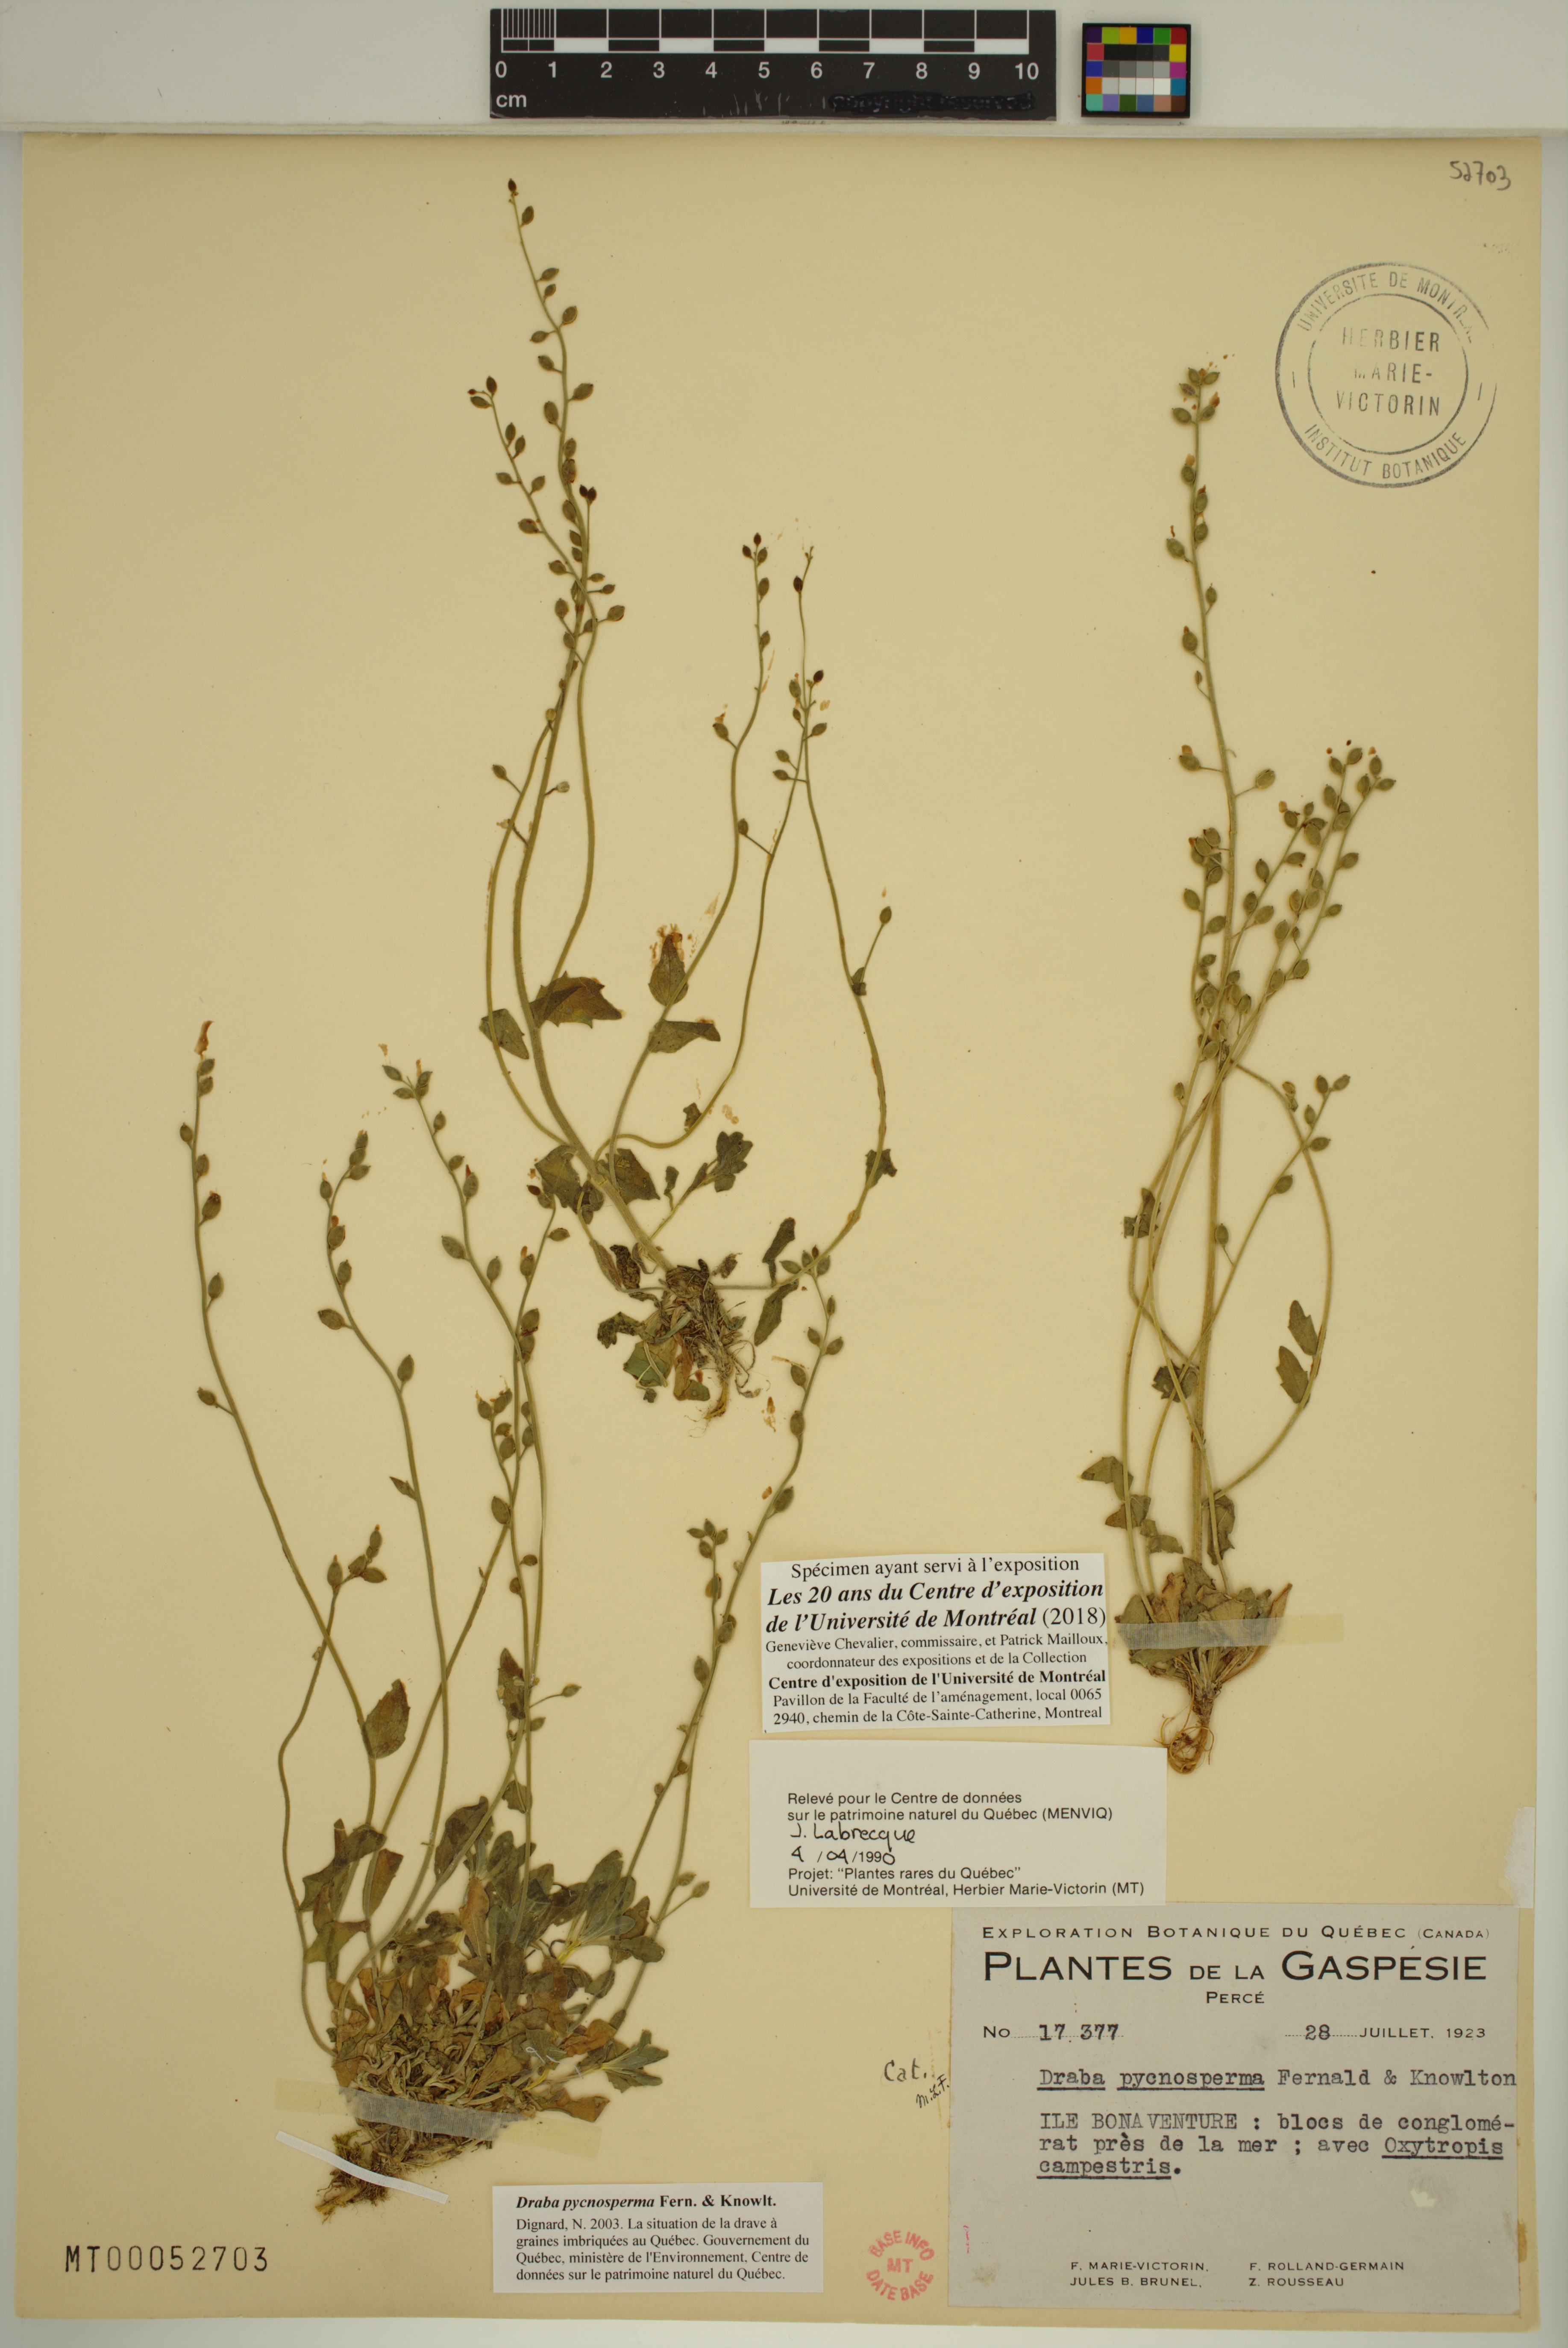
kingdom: Plantae
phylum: Tracheophyta
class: Magnoliopsida
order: Brassicales
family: Brassicaceae
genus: Draba
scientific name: Draba pycnosperma
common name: Dense draba
